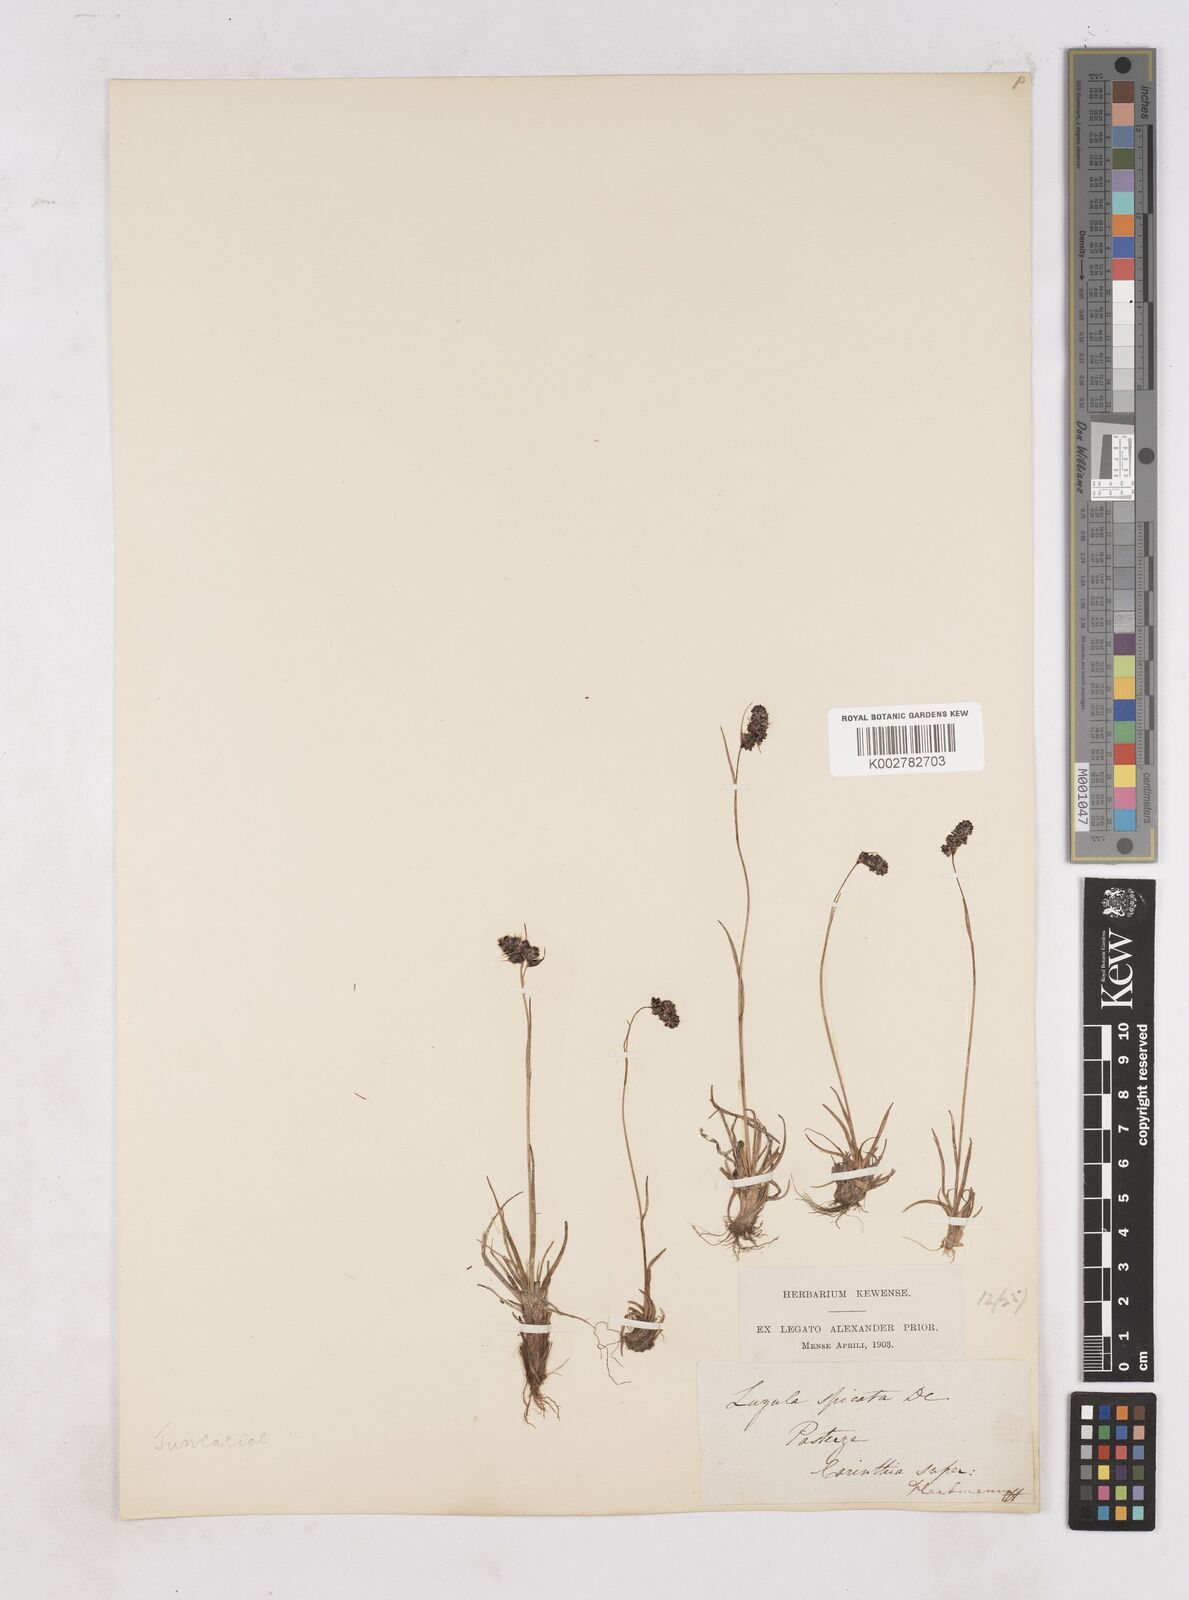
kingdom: Plantae
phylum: Tracheophyta
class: Liliopsida
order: Poales
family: Juncaceae
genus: Luzula
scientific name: Luzula spicata
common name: Spiked wood-rush
